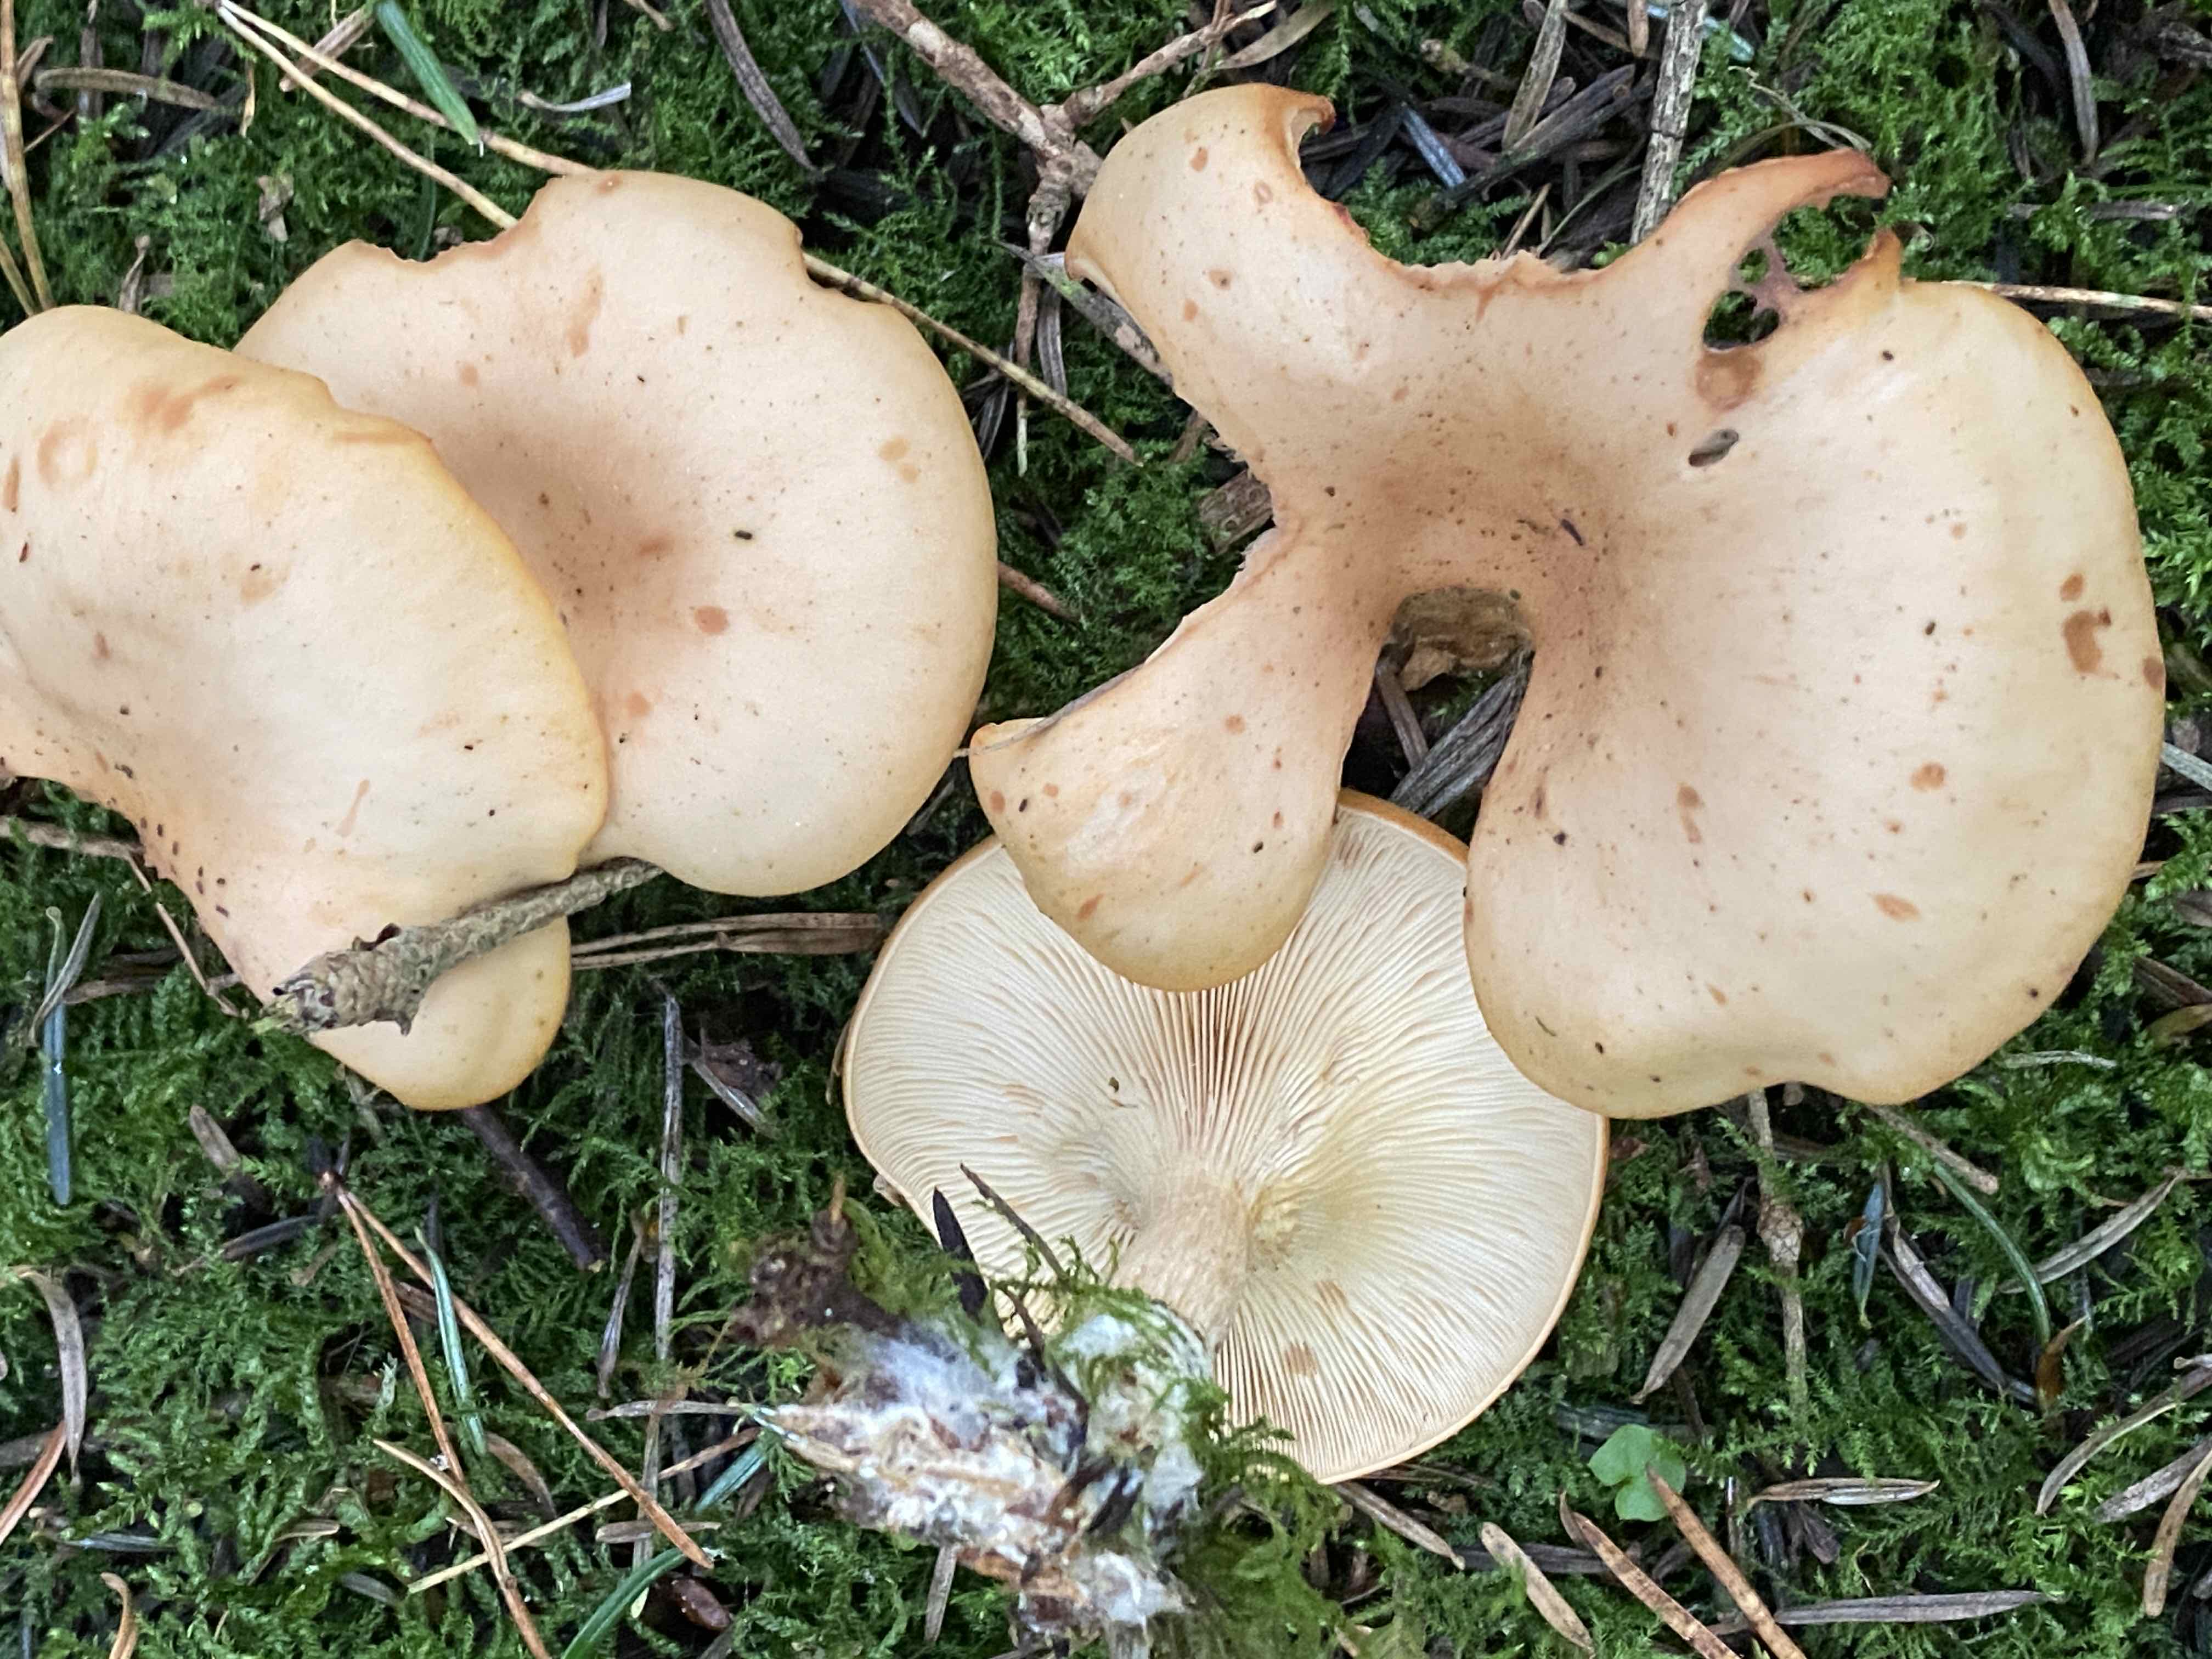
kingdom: Fungi
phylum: Basidiomycota
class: Agaricomycetes
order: Agaricales
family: Tricholomataceae
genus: Paralepista
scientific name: Paralepista flaccida
